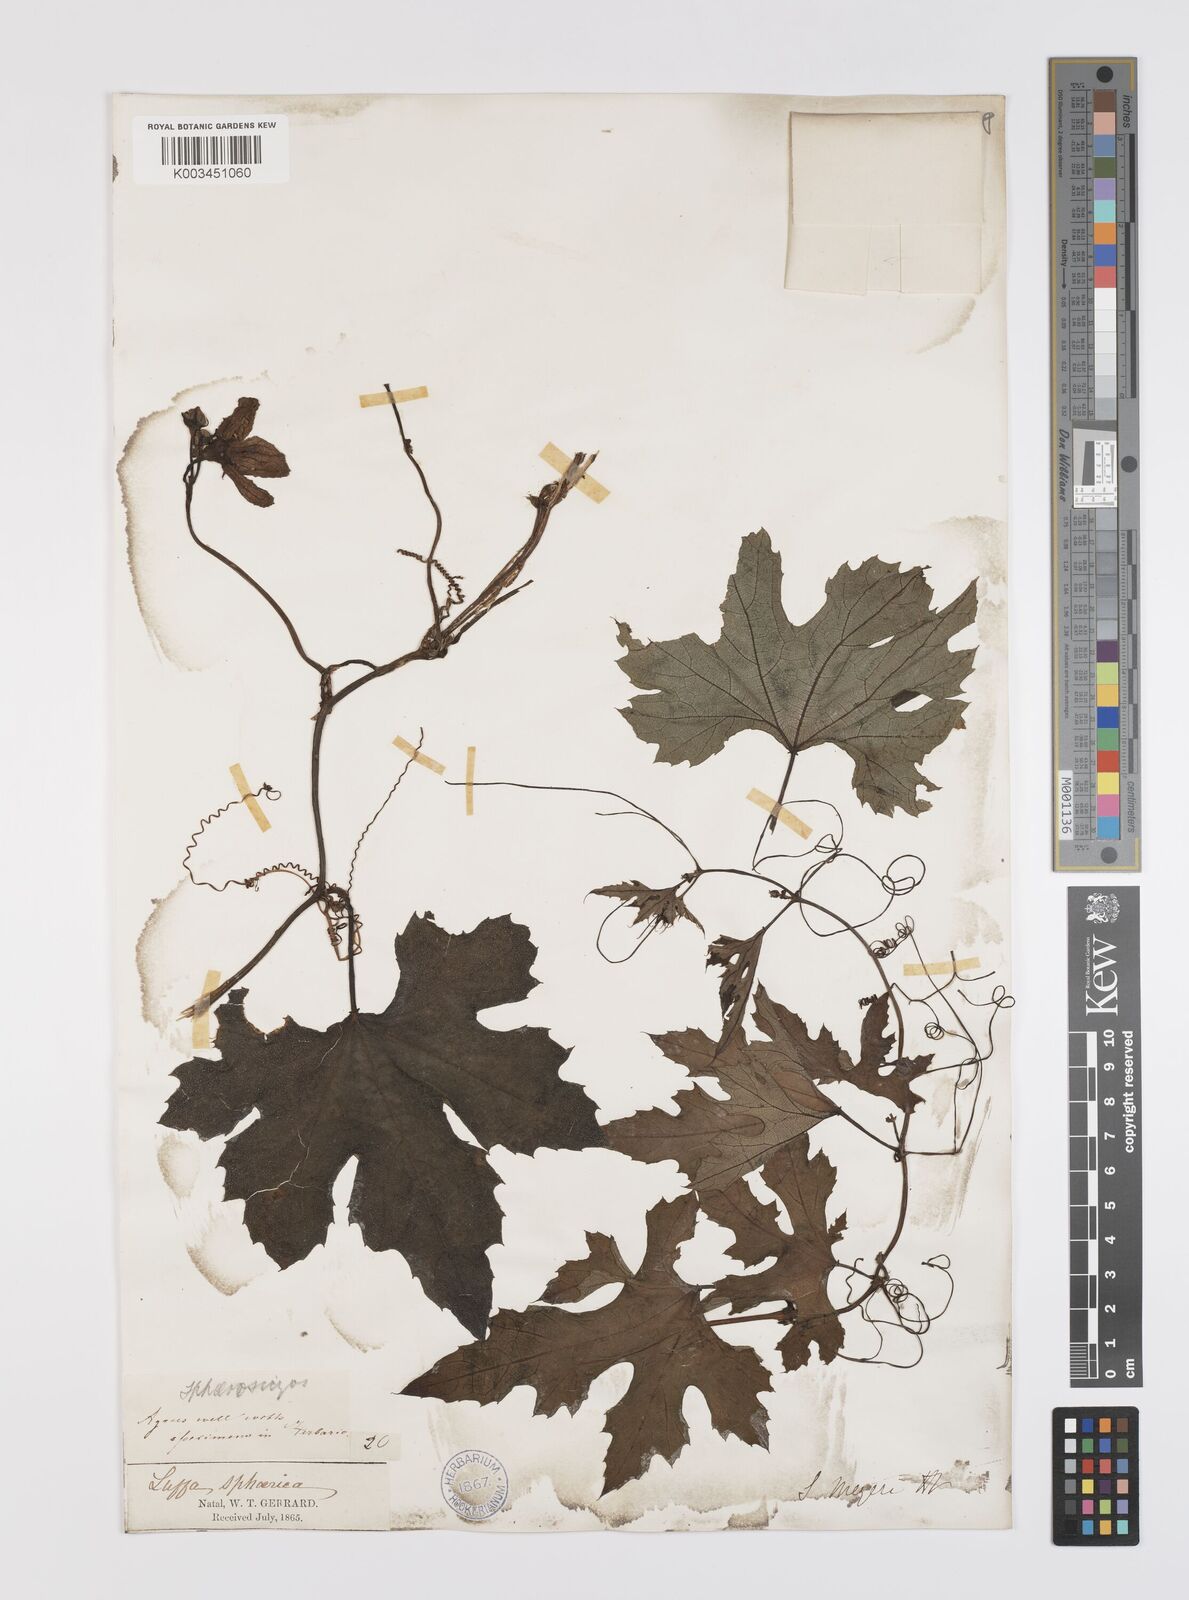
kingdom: Plantae
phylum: Tracheophyta
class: Magnoliopsida
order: Cucurbitales
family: Cucurbitaceae
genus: Lagenaria
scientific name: Lagenaria sphaerica
